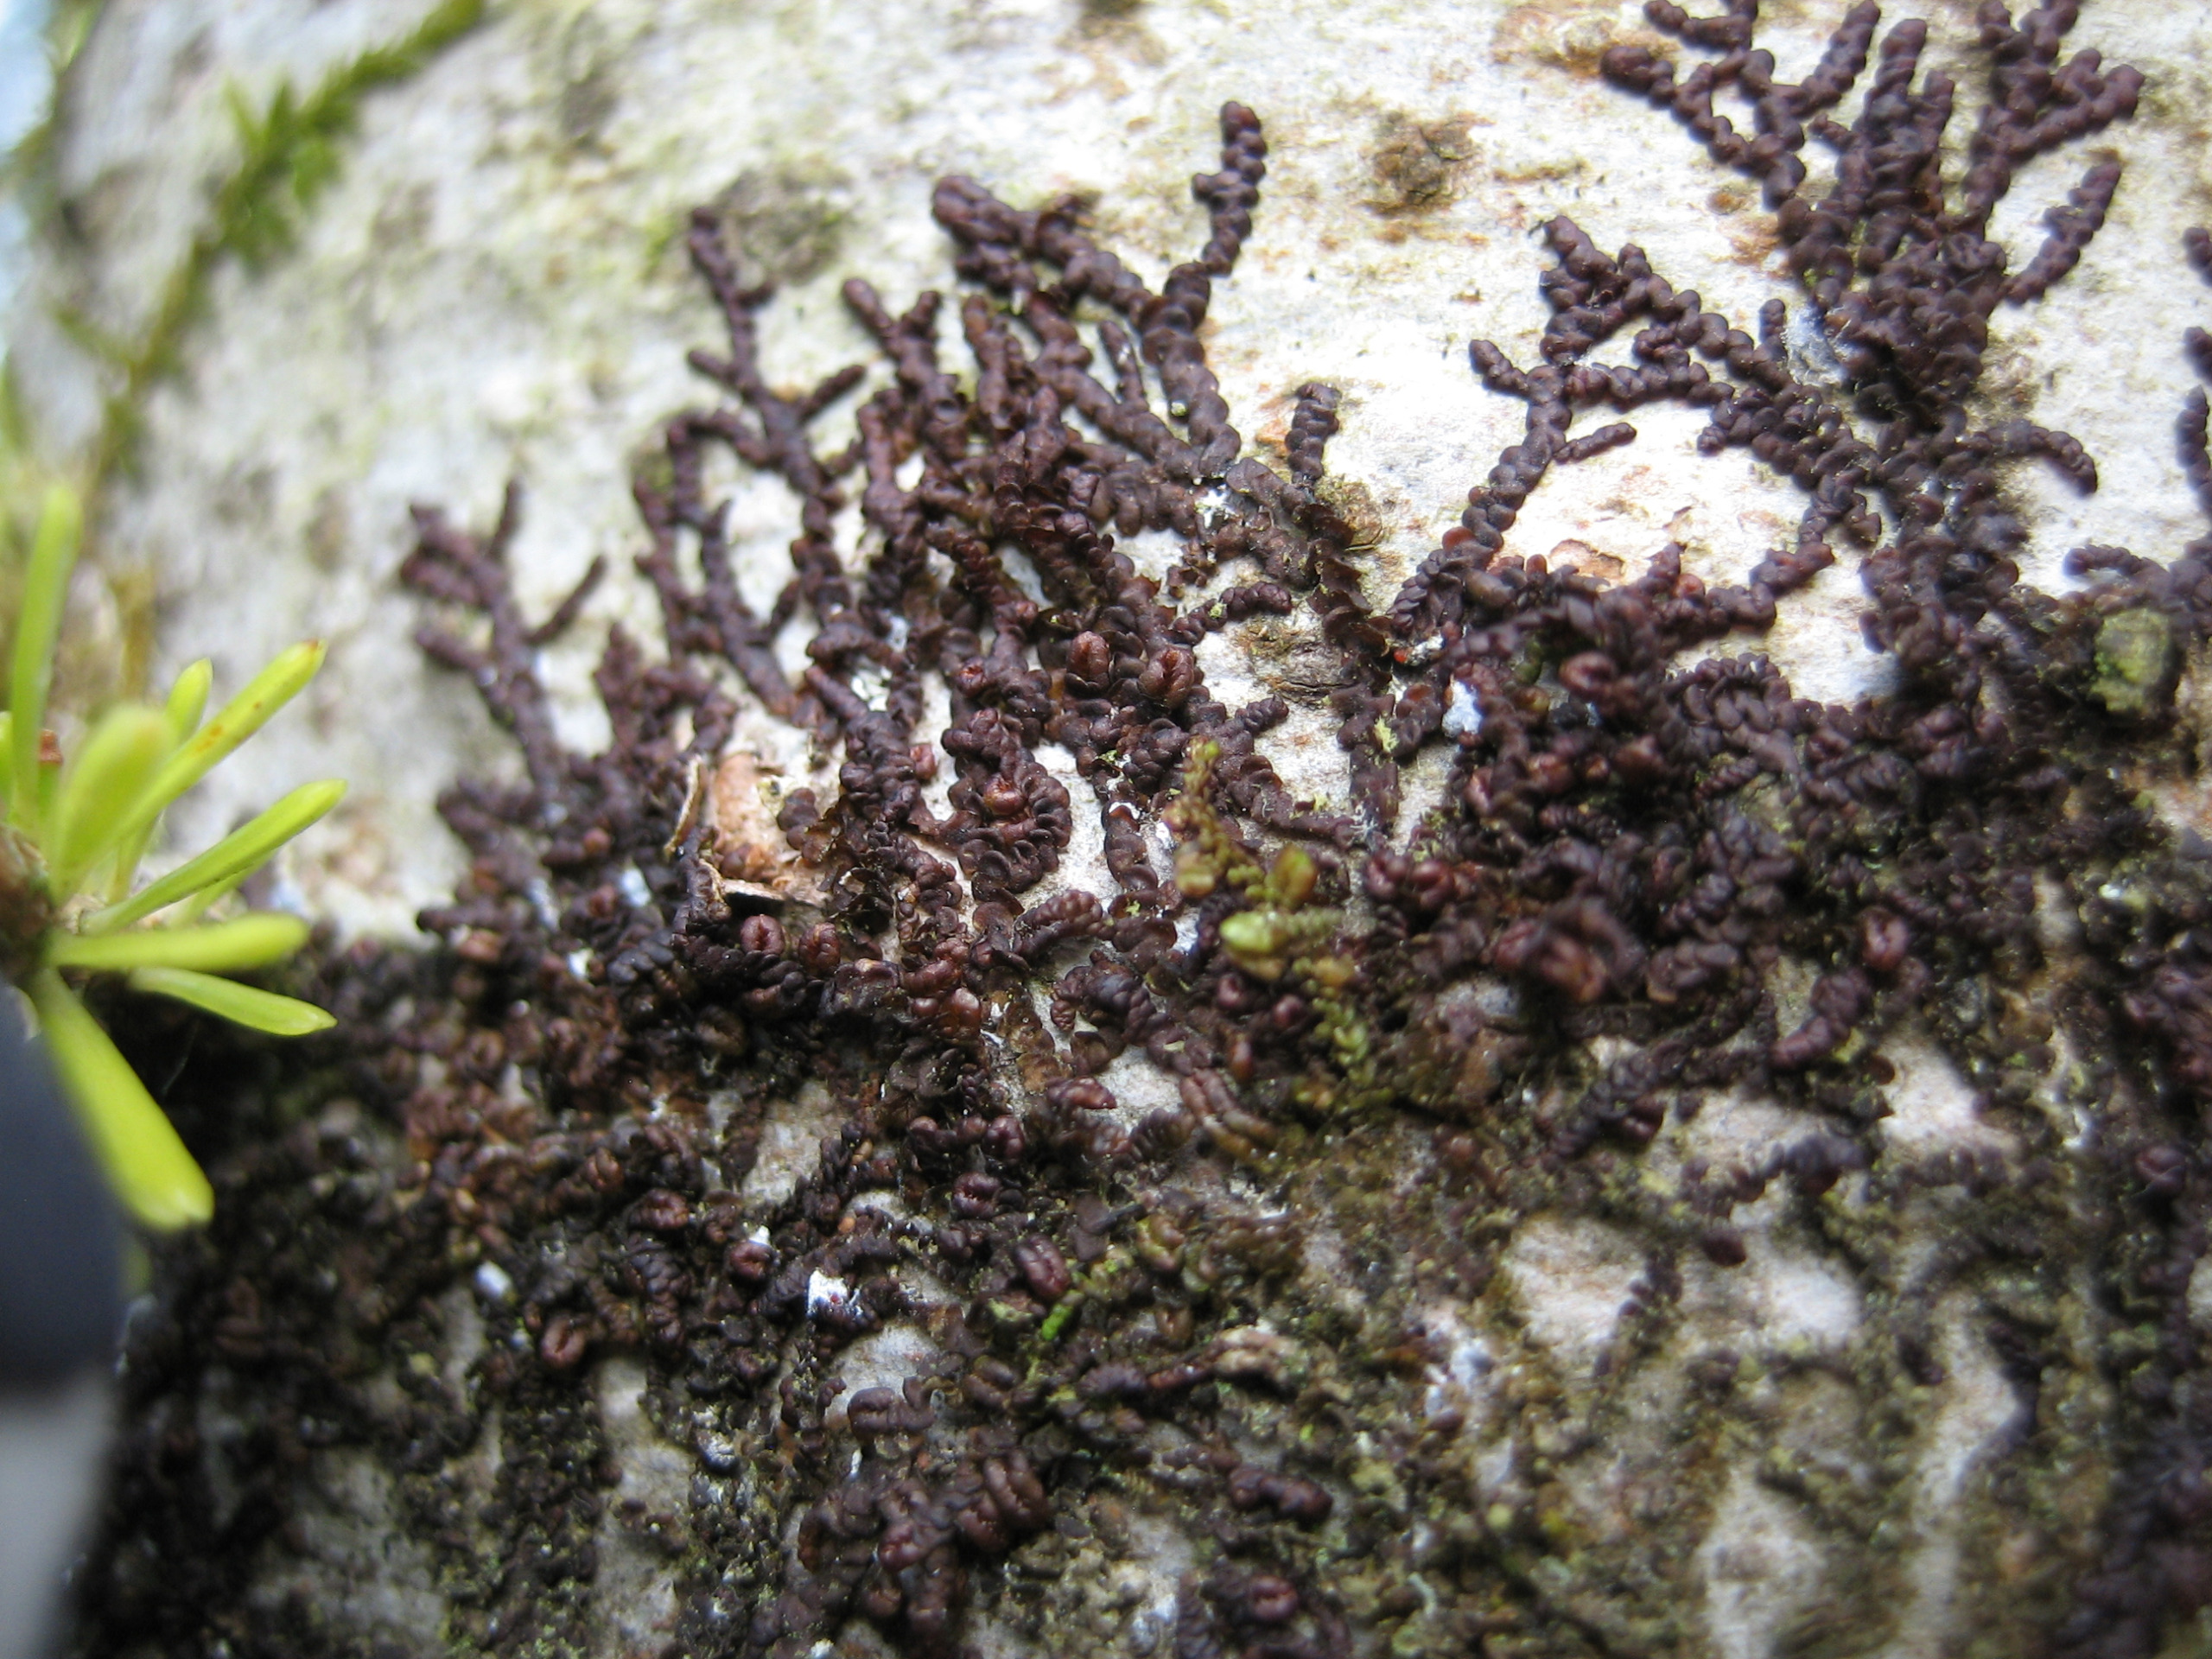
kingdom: Plantae
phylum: Marchantiophyta
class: Jungermanniopsida
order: Porellales
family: Frullaniaceae
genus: Frullania
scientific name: Frullania dilatata
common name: Mat bronzemos
